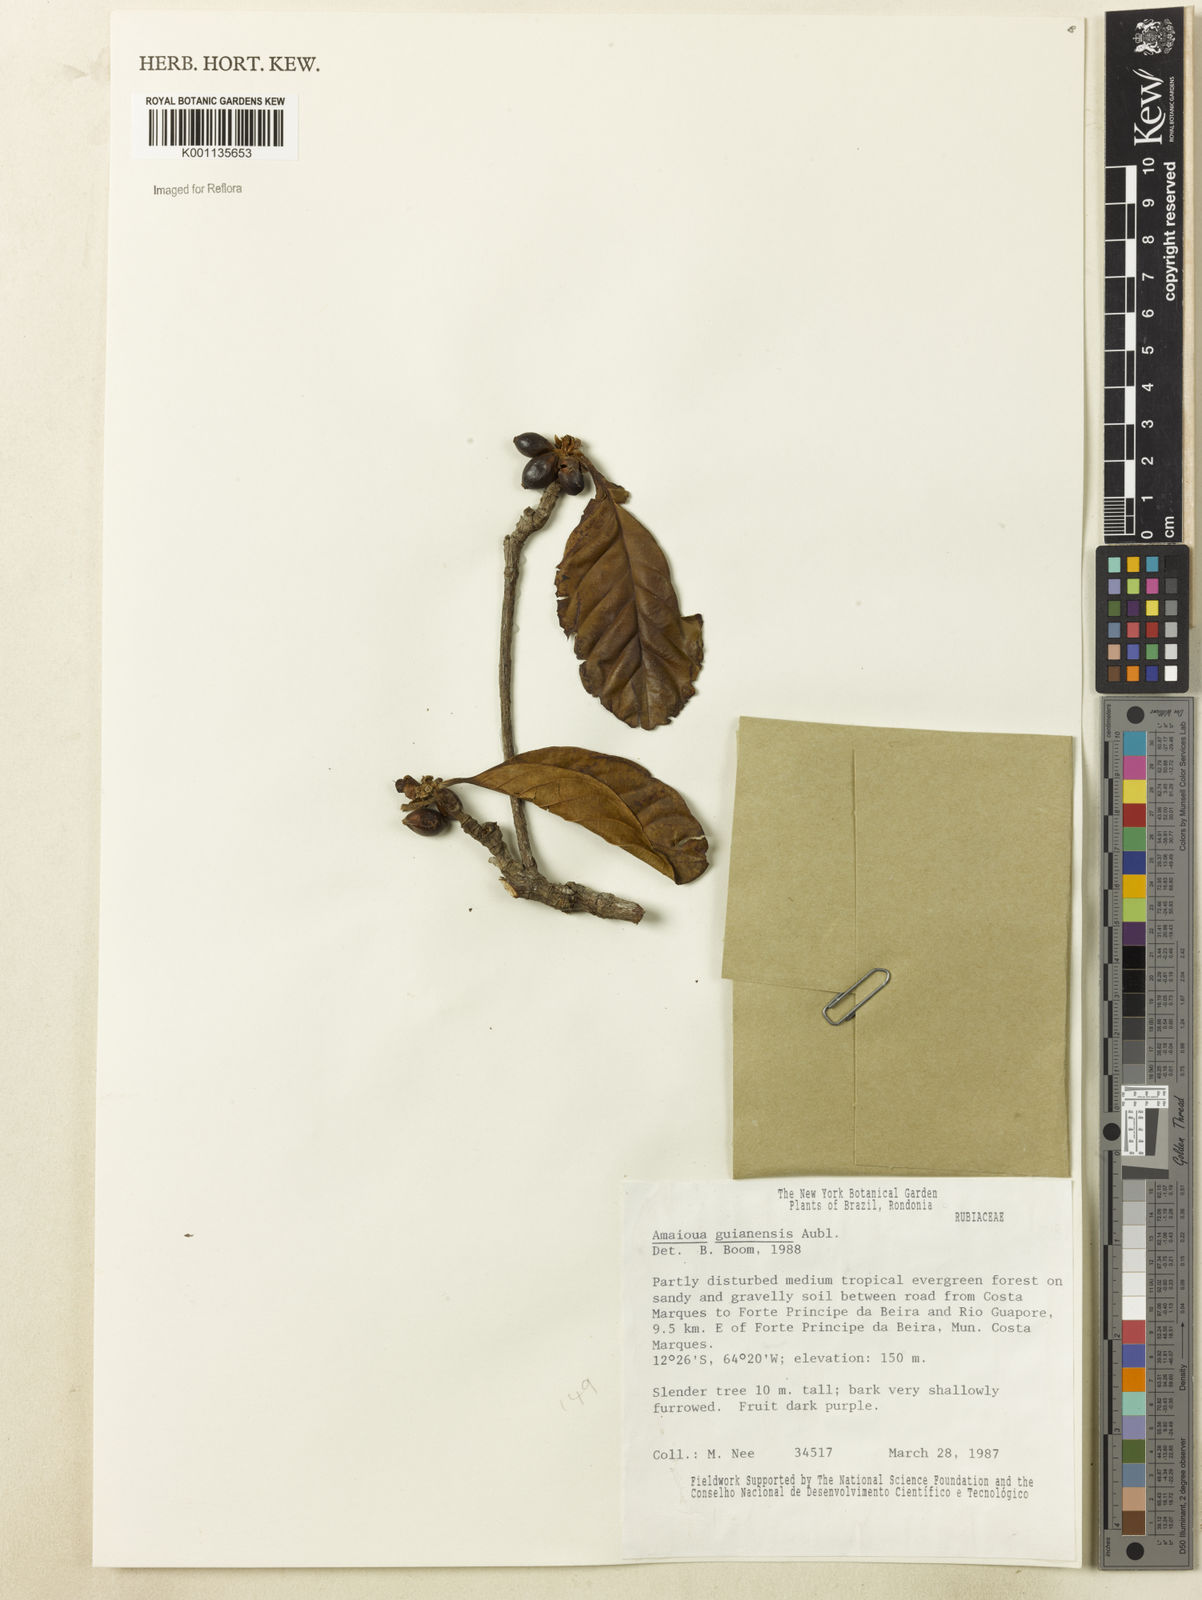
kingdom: Plantae
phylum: Tracheophyta
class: Magnoliopsida
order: Gentianales
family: Rubiaceae
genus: Amaioua
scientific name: Amaioua guianensis
